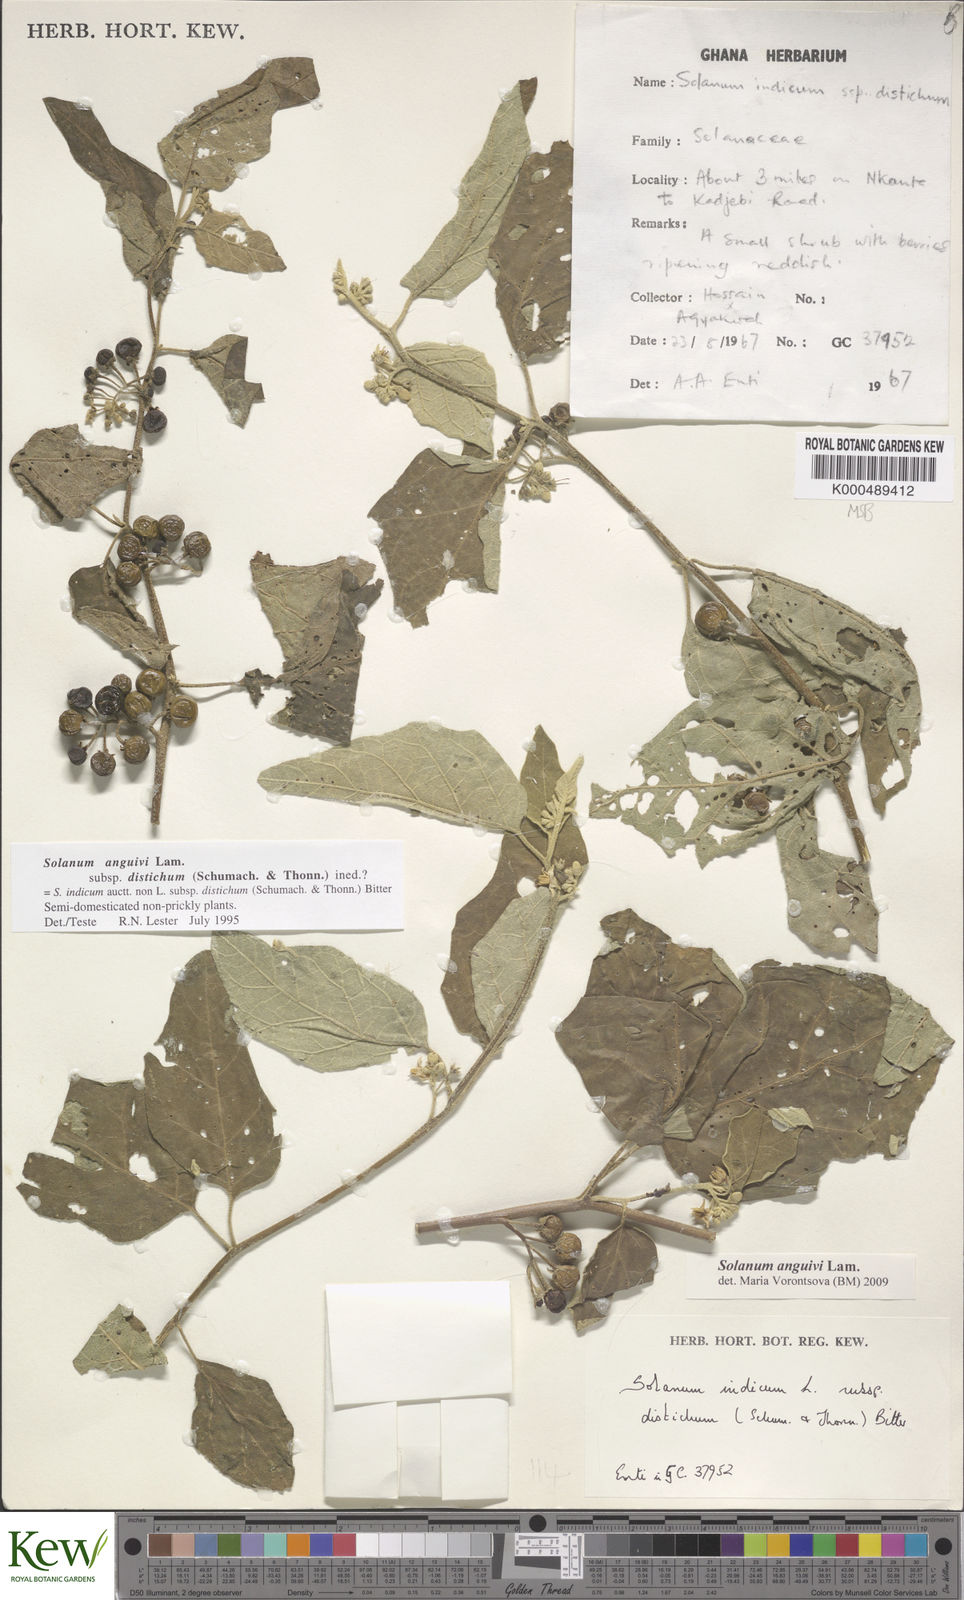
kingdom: Plantae
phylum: Tracheophyta
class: Magnoliopsida
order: Solanales
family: Solanaceae
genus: Solanum
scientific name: Solanum anguivi
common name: Forest bitterberry
